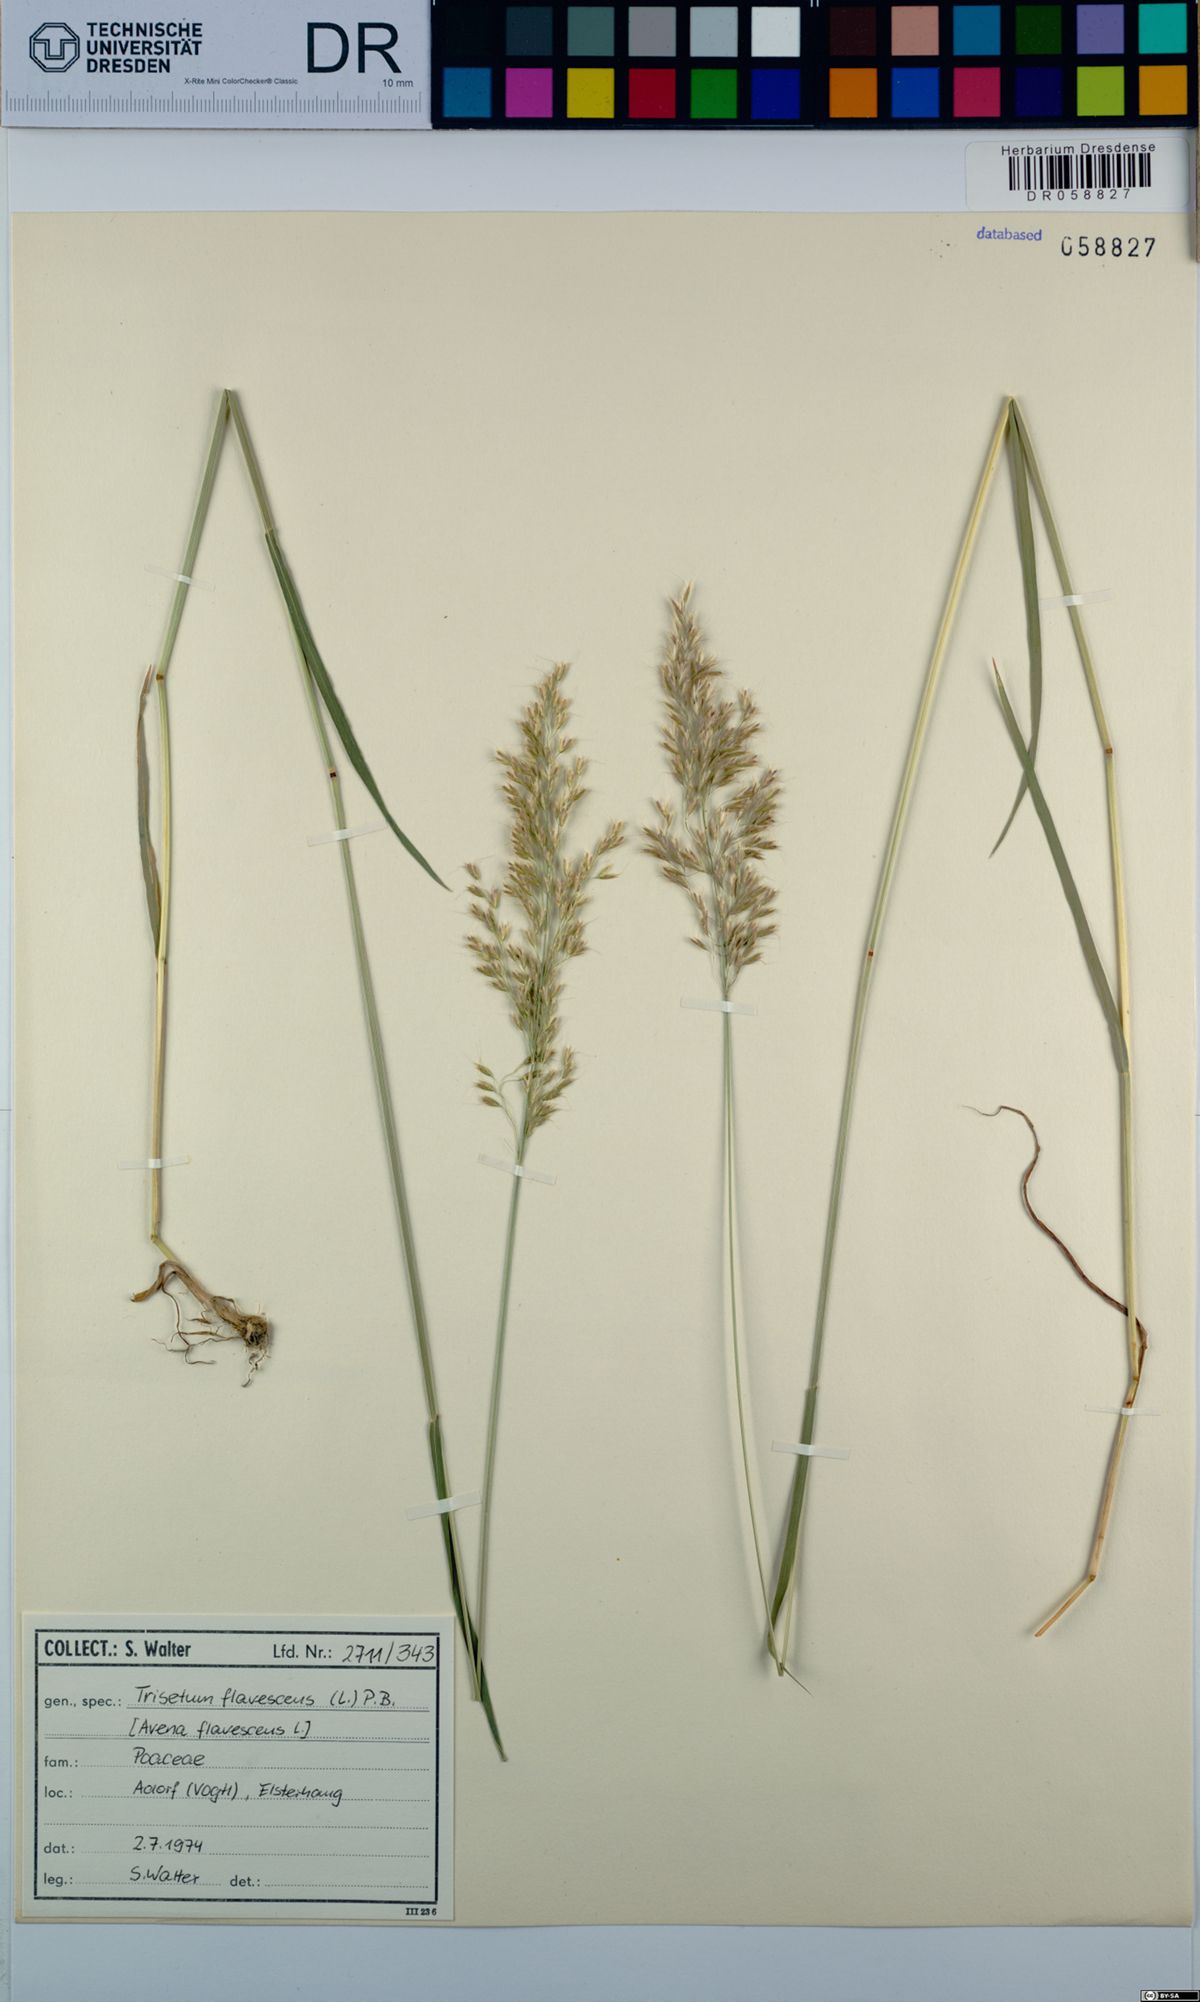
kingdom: Plantae
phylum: Tracheophyta
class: Liliopsida
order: Poales
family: Poaceae
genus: Trisetum
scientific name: Trisetum flavescens
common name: Yellow oat-grass
